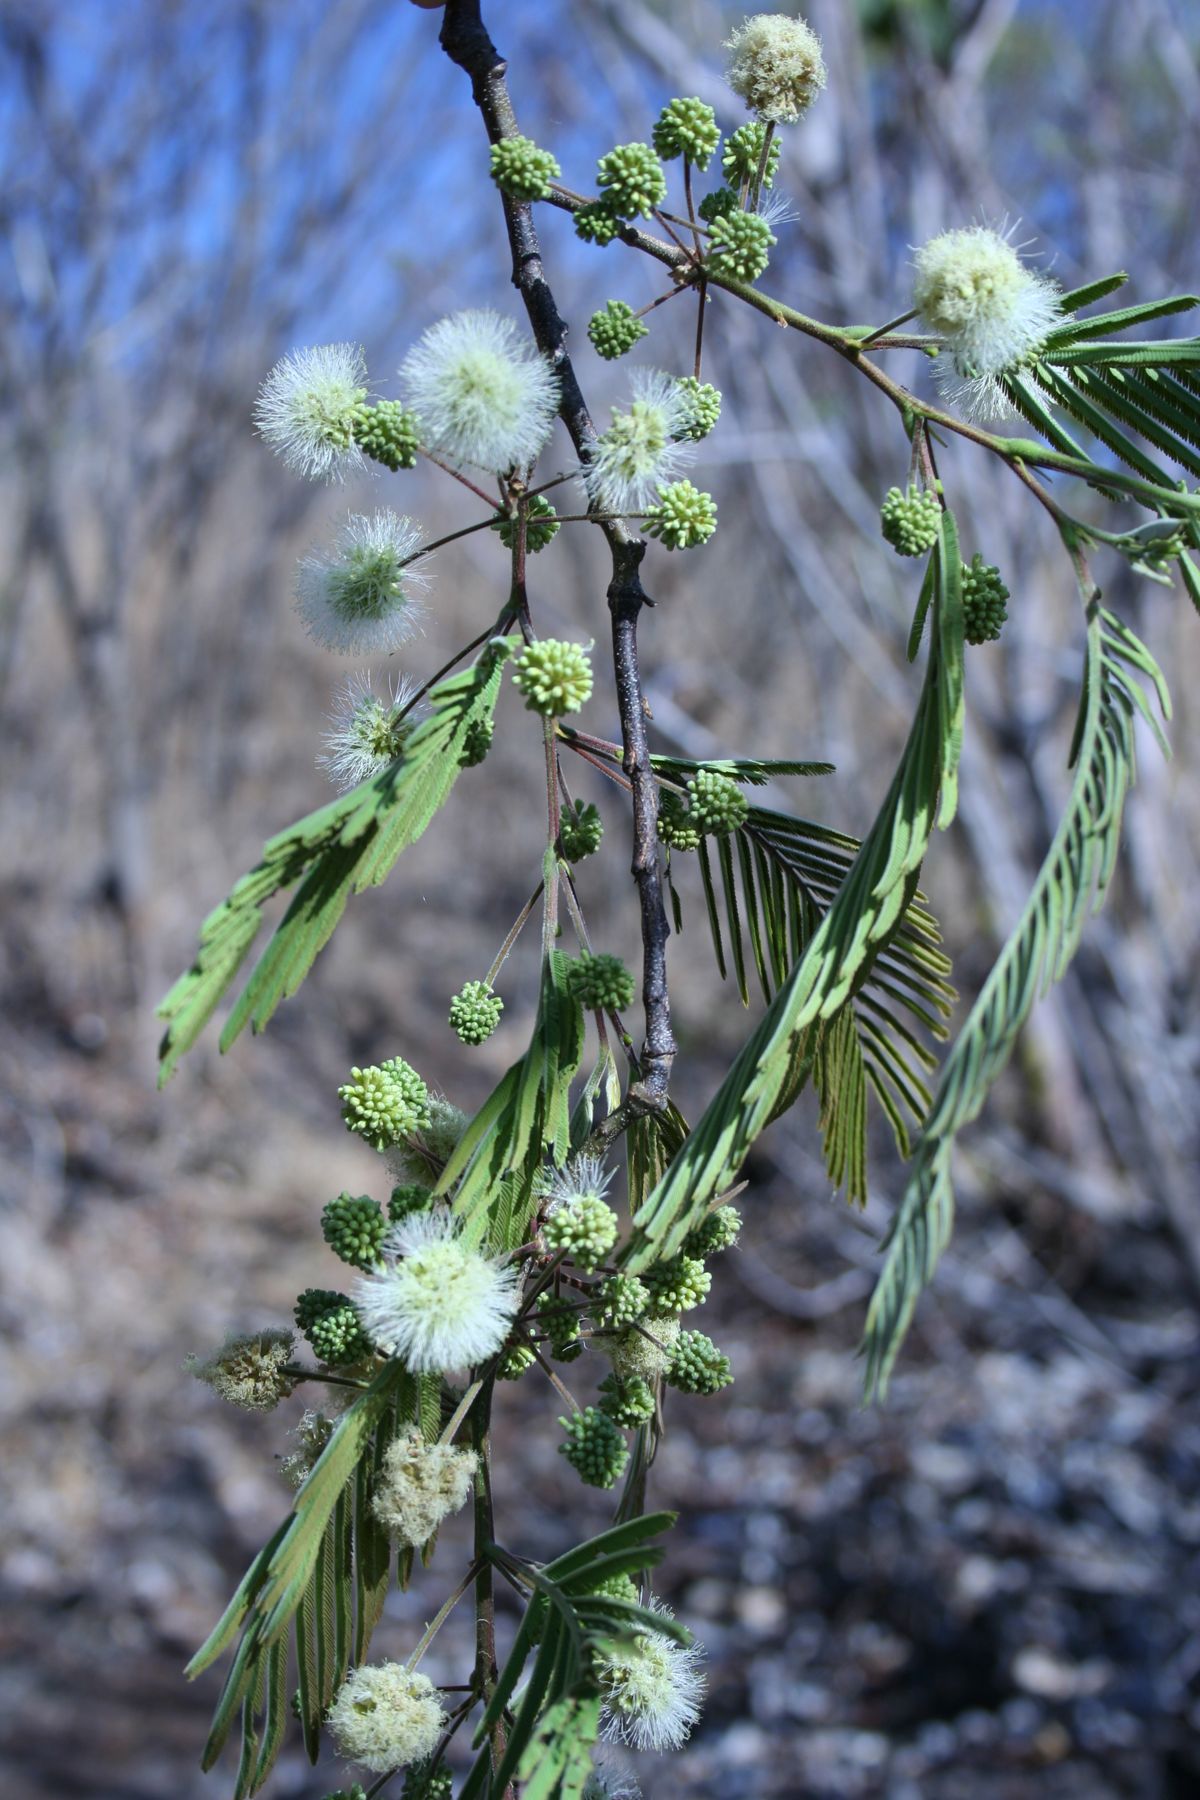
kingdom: Plantae
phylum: Tracheophyta
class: Magnoliopsida
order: Fabales
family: Fabaceae
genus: Lysiloma
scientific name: Lysiloma auritum
